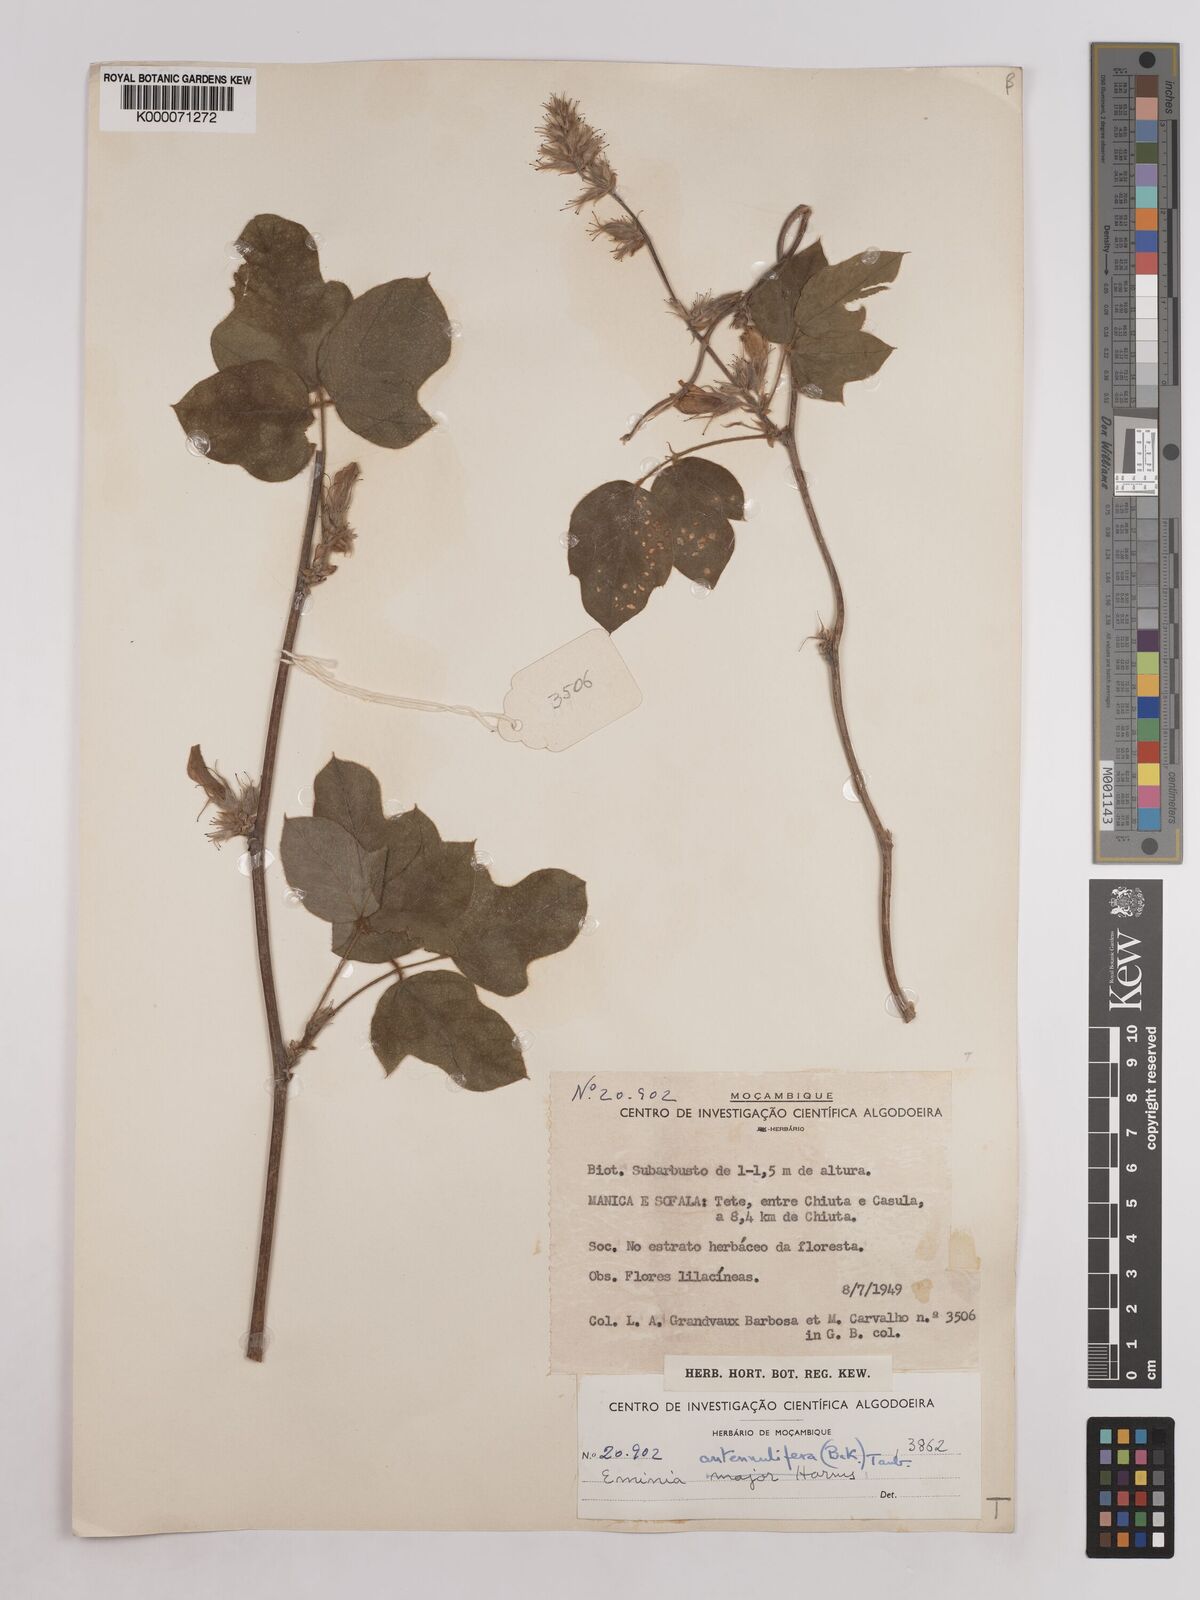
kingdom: Plantae
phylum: Tracheophyta
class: Magnoliopsida
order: Fabales
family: Fabaceae
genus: Eminia
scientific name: Eminia antennulifera
